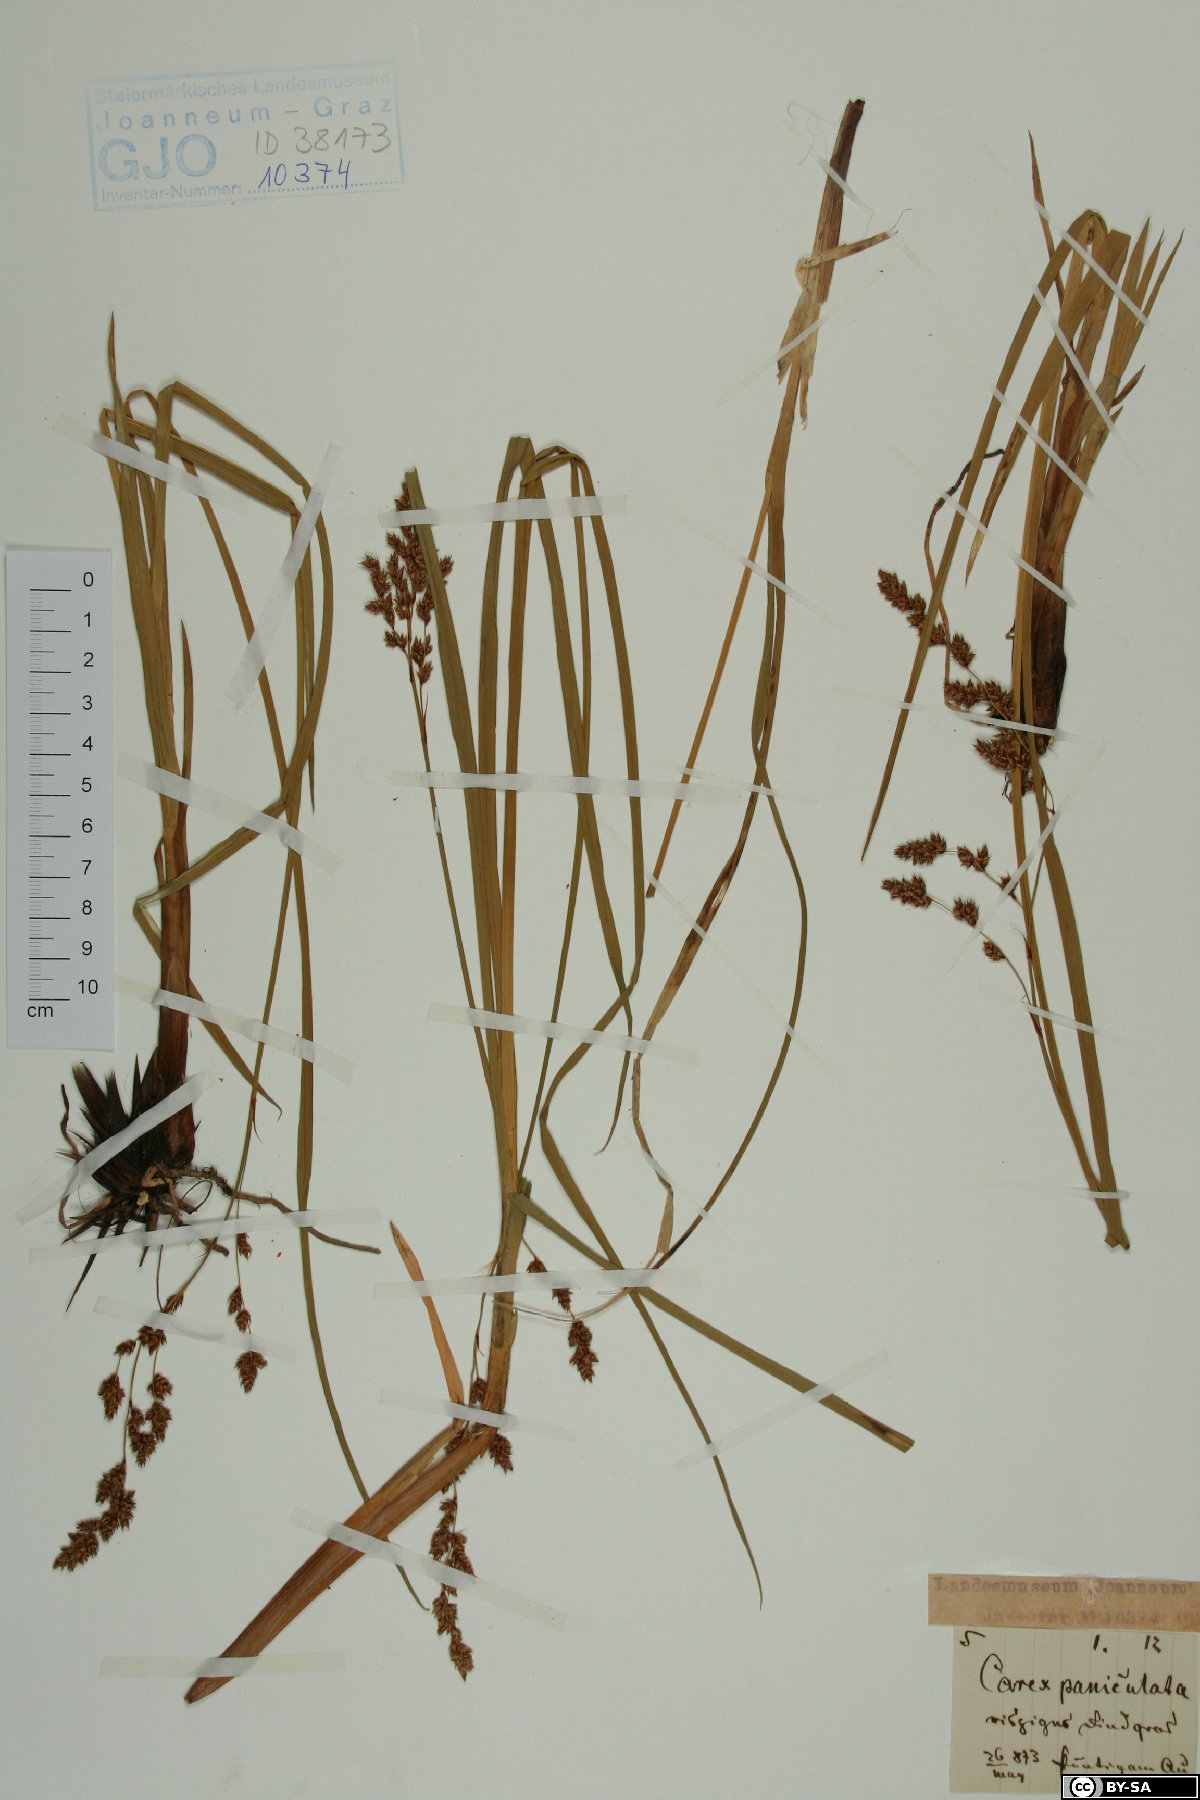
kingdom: Plantae
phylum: Tracheophyta
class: Liliopsida
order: Poales
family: Cyperaceae
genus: Carex
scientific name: Carex paniculata
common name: Greater tussock-sedge
